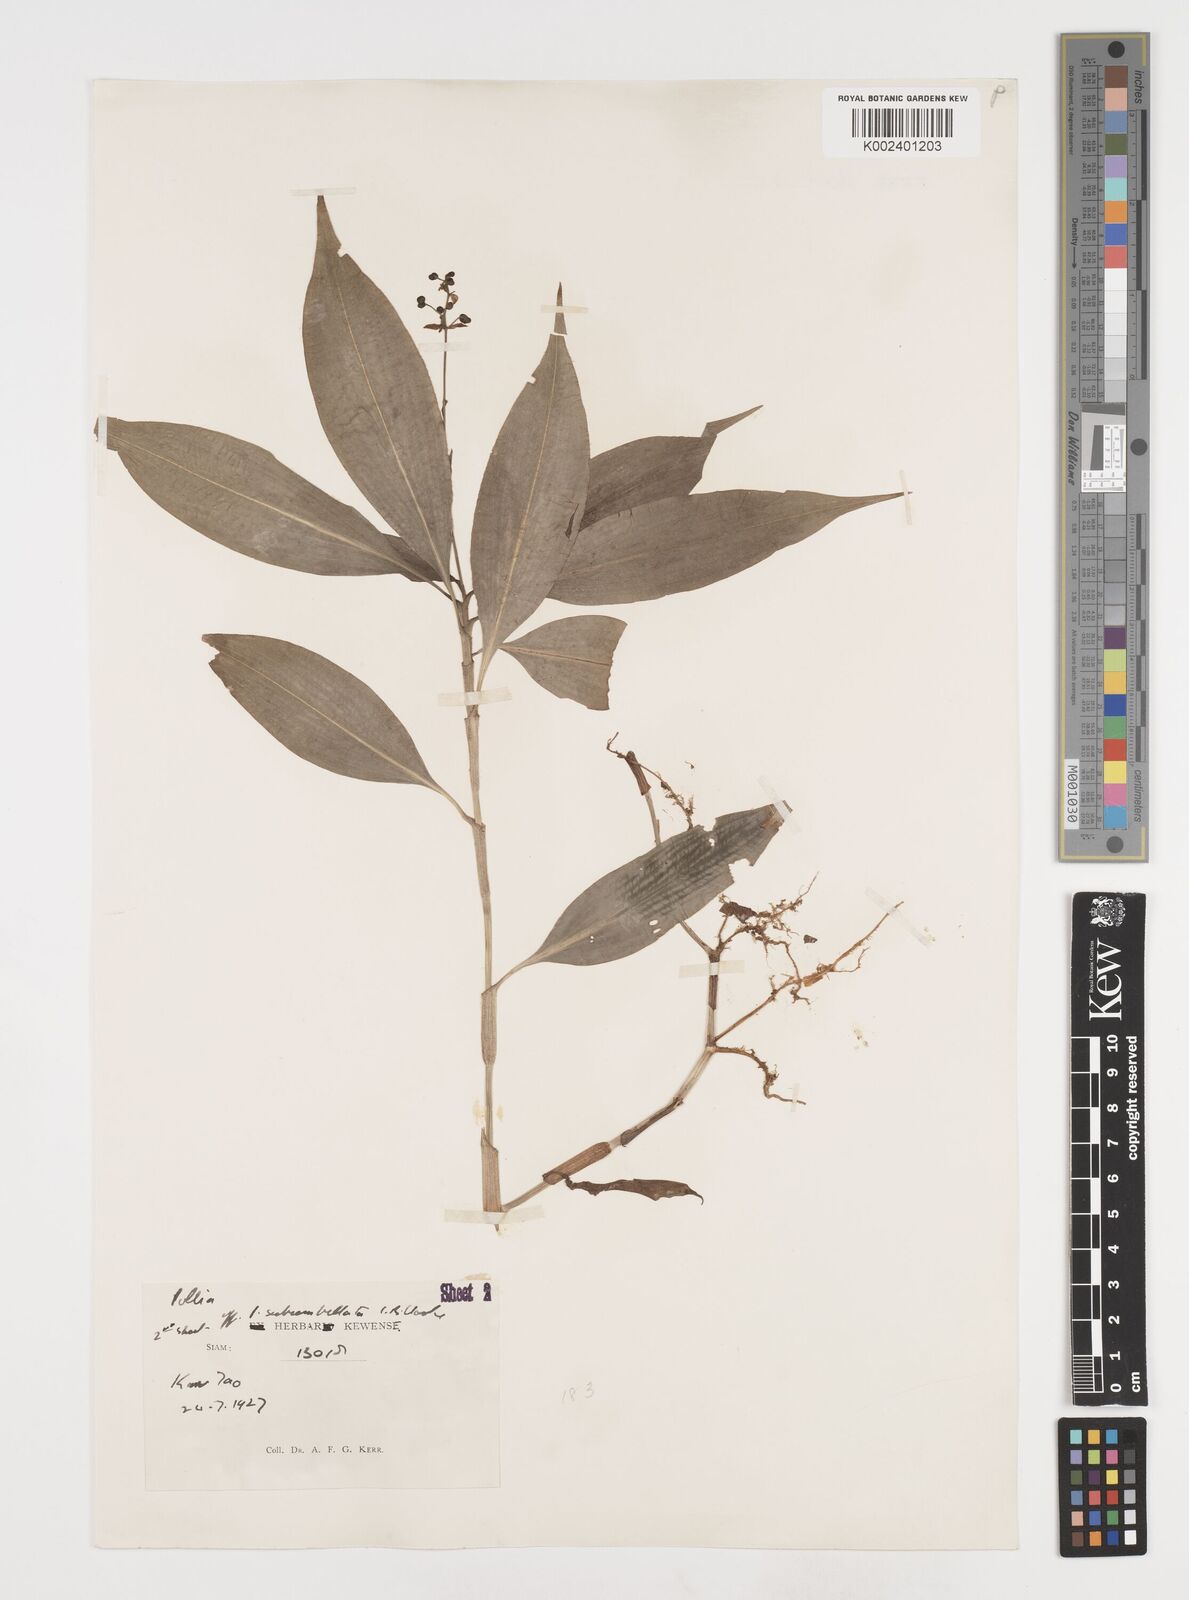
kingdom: Plantae
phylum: Tracheophyta
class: Liliopsida
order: Commelinales
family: Commelinaceae
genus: Pollia
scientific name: Pollia secundiflora
